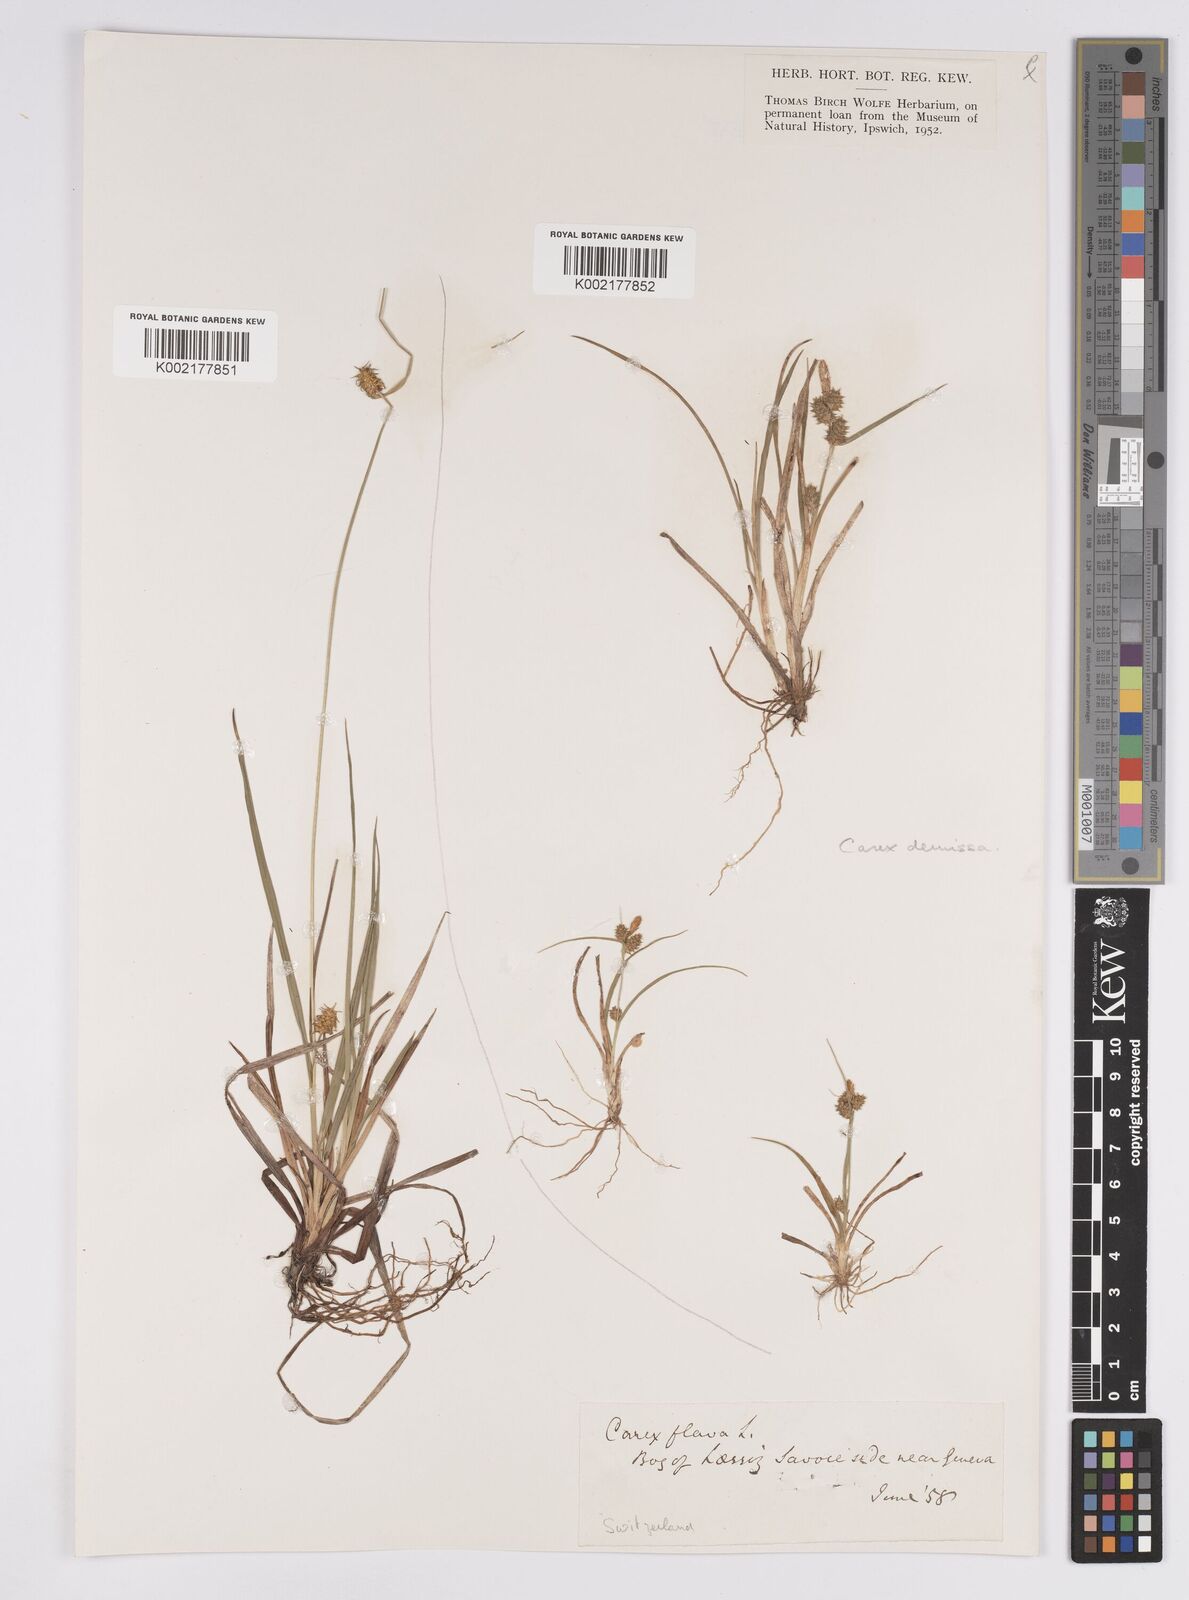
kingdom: Plantae
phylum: Tracheophyta
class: Liliopsida
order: Poales
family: Cyperaceae
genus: Carex
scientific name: Carex flava
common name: Large yellow-sedge
